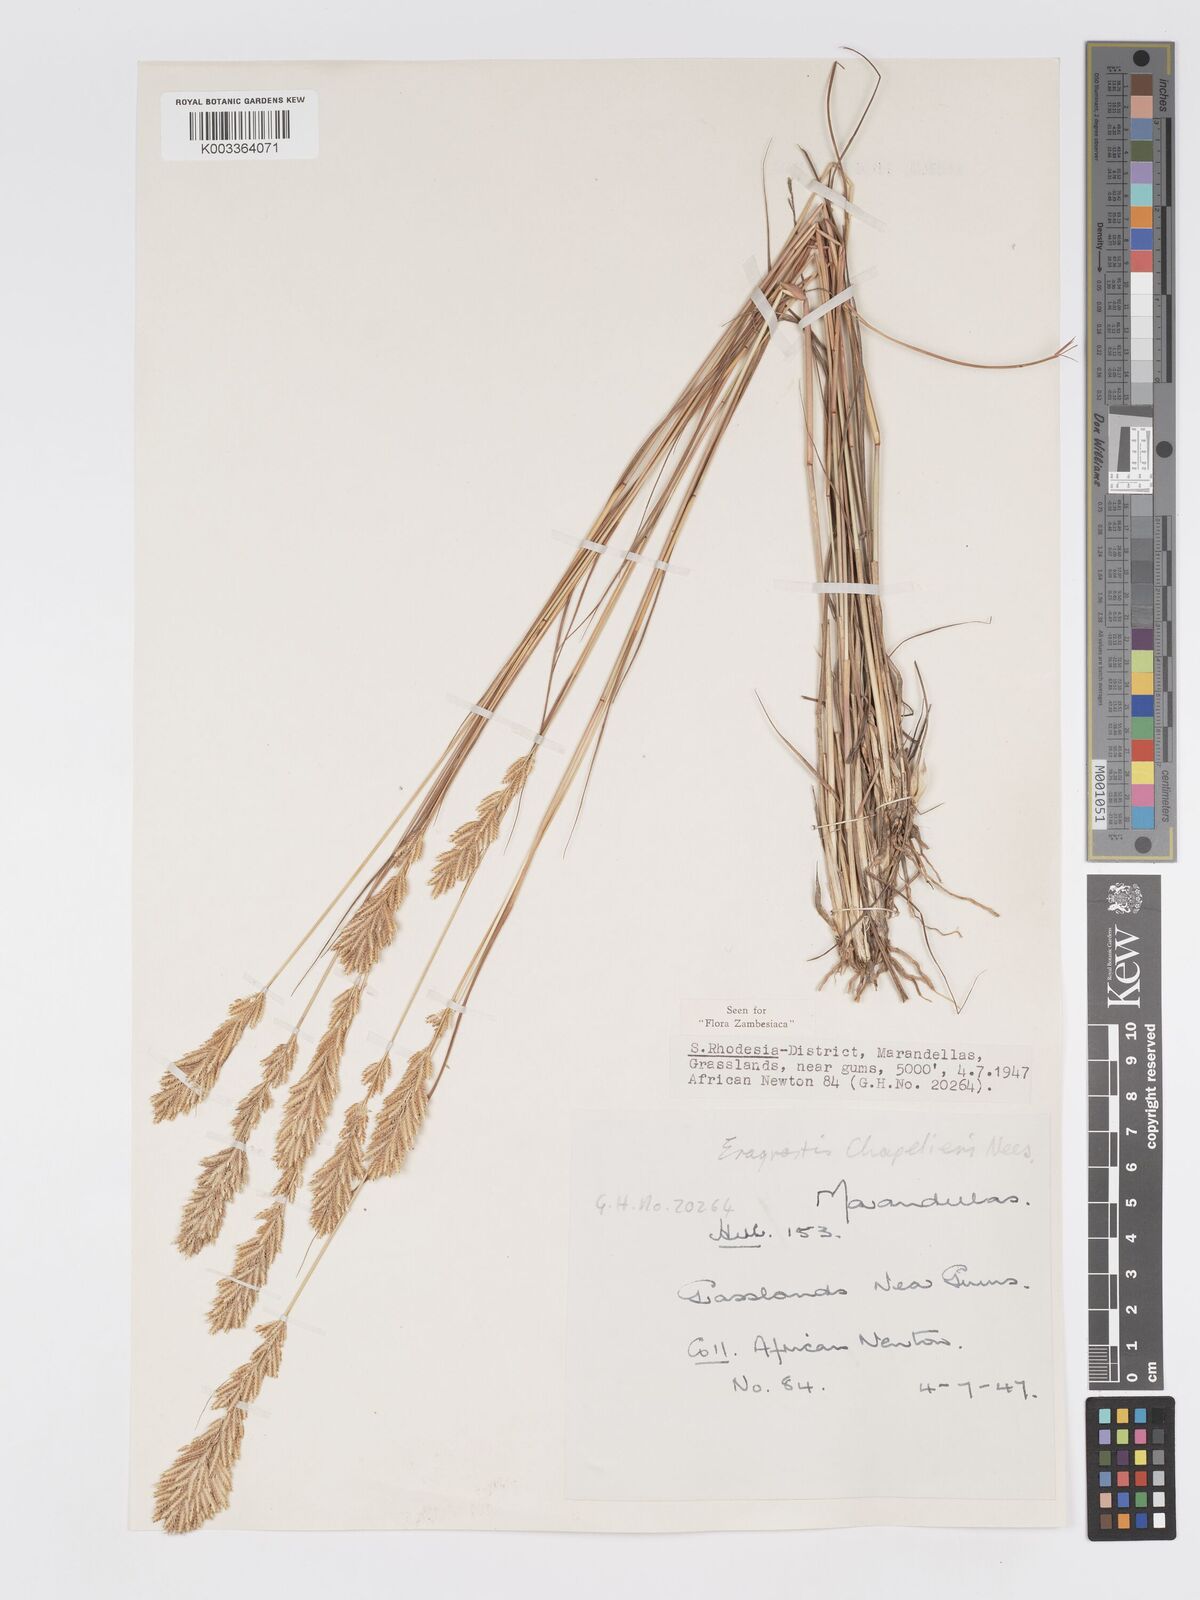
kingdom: Plantae
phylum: Tracheophyta
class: Liliopsida
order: Poales
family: Poaceae
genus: Eragrostis
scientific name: Eragrostis chapelieri
